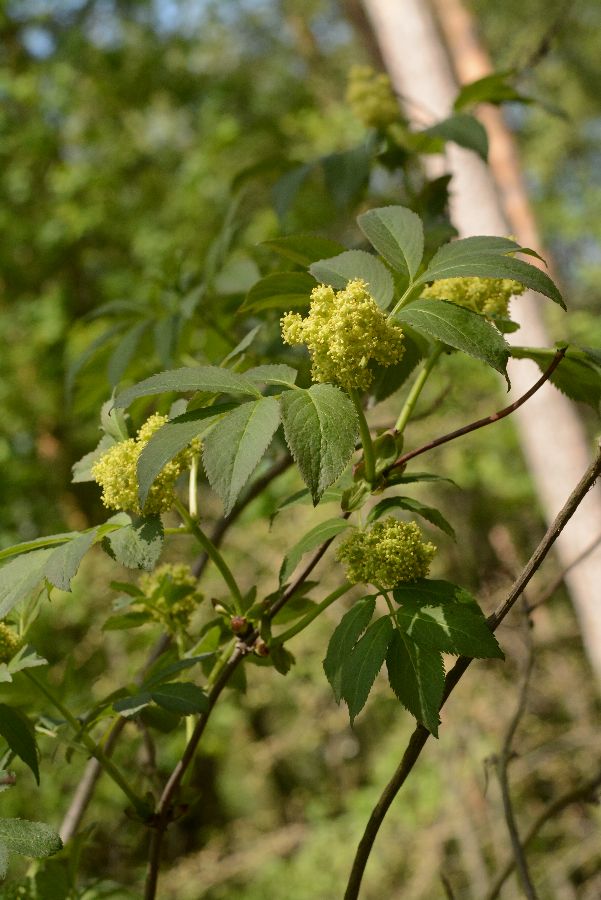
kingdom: Plantae
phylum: Tracheophyta
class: Magnoliopsida
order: Dipsacales
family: Viburnaceae
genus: Sambucus
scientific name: Sambucus racemosa
